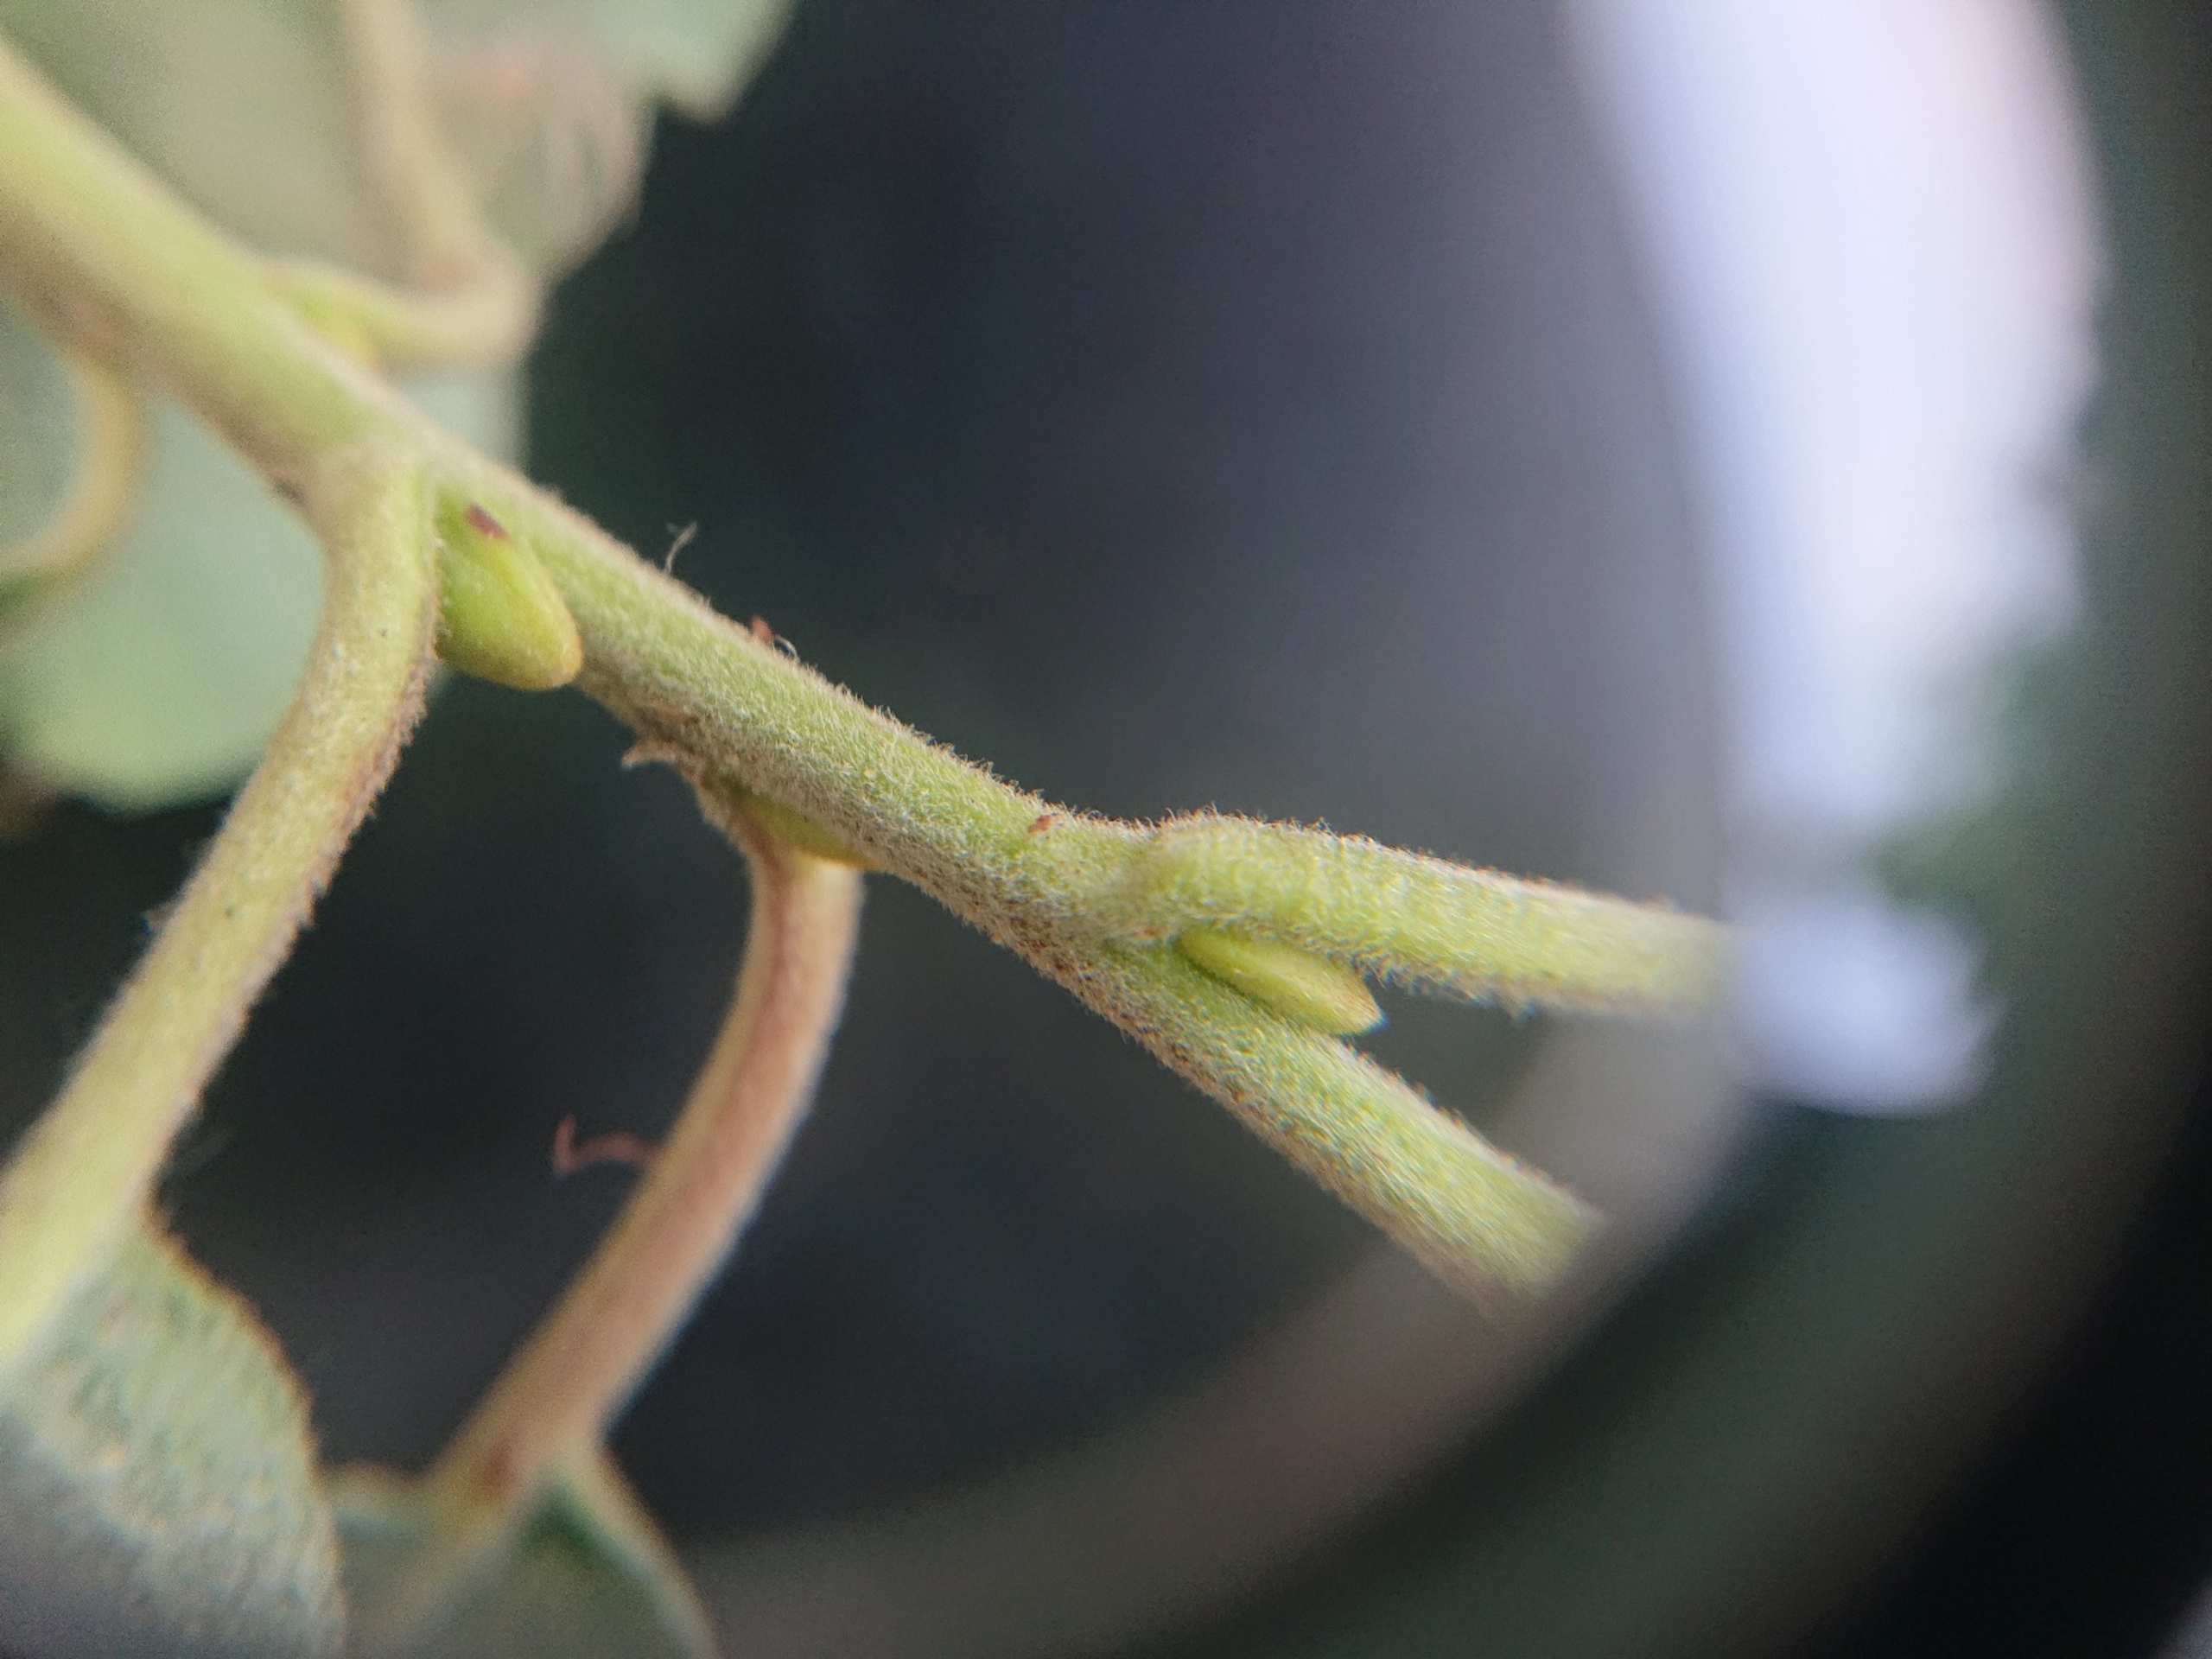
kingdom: Plantae
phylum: Tracheophyta
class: Magnoliopsida
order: Malpighiales
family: Salicaceae
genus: Salix
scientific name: Salix caprea
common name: Selje-pil
